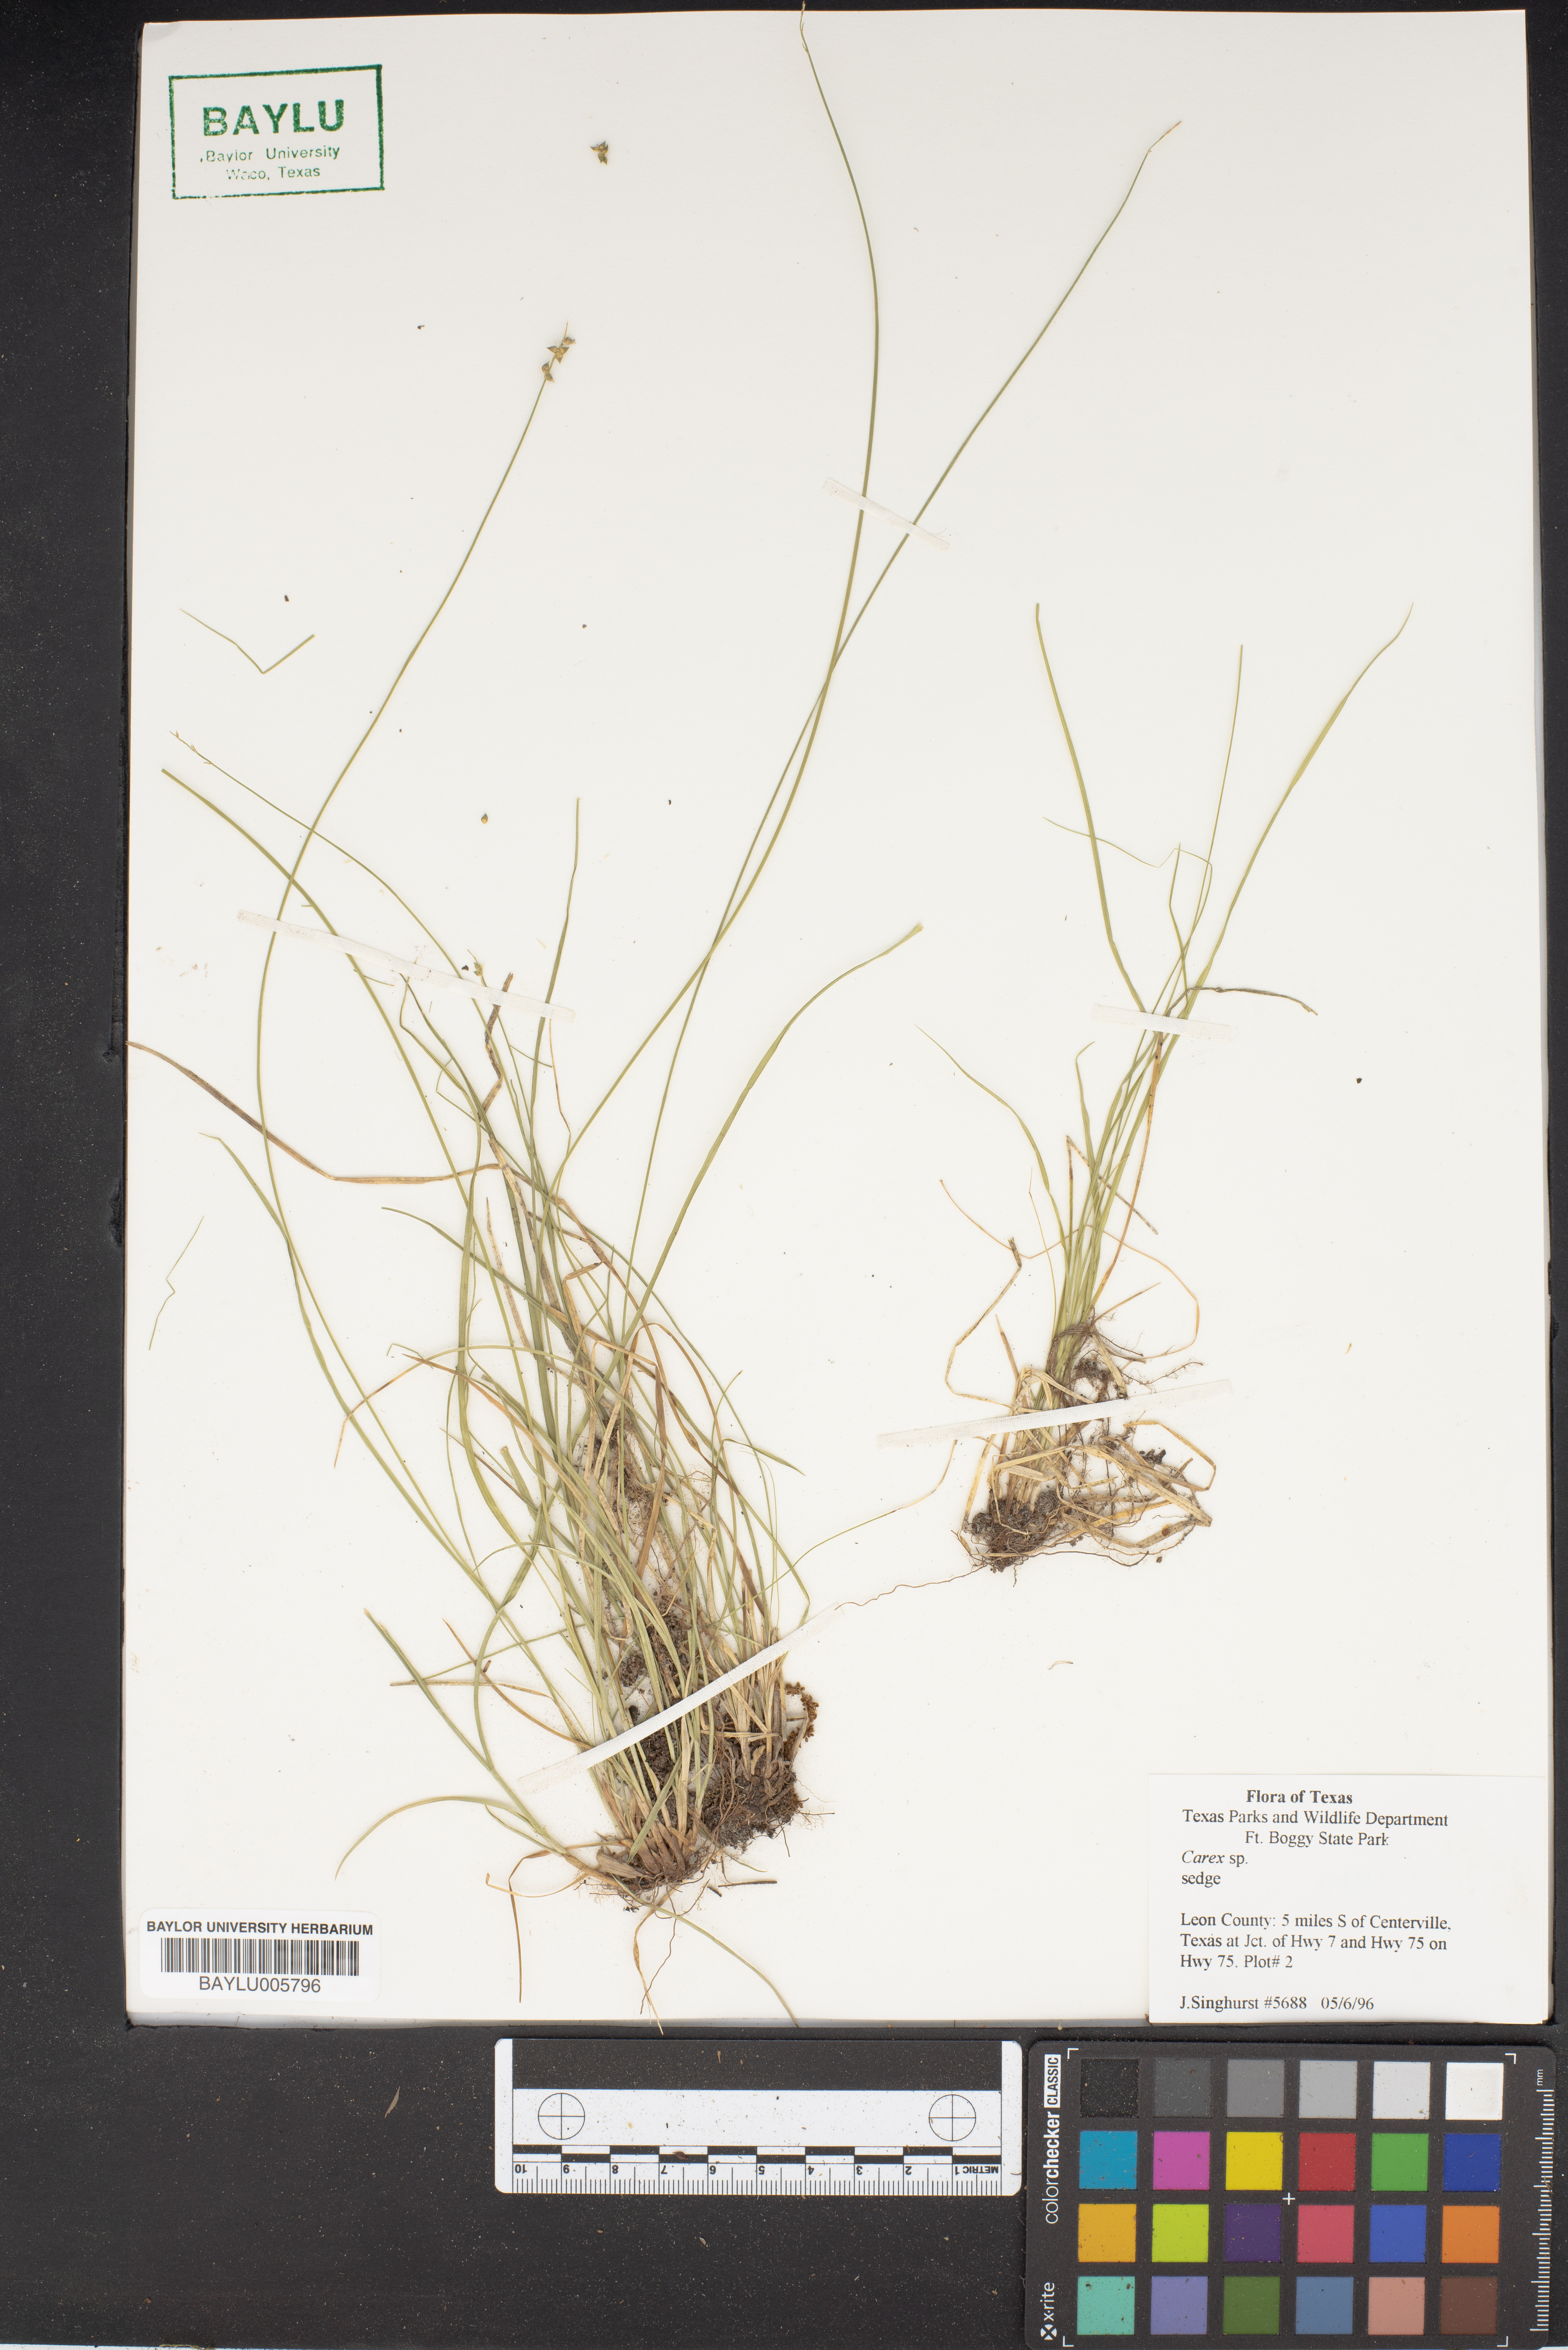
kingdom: Plantae
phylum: Tracheophyta
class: Liliopsida
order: Poales
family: Cyperaceae
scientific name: Cyperaceae
